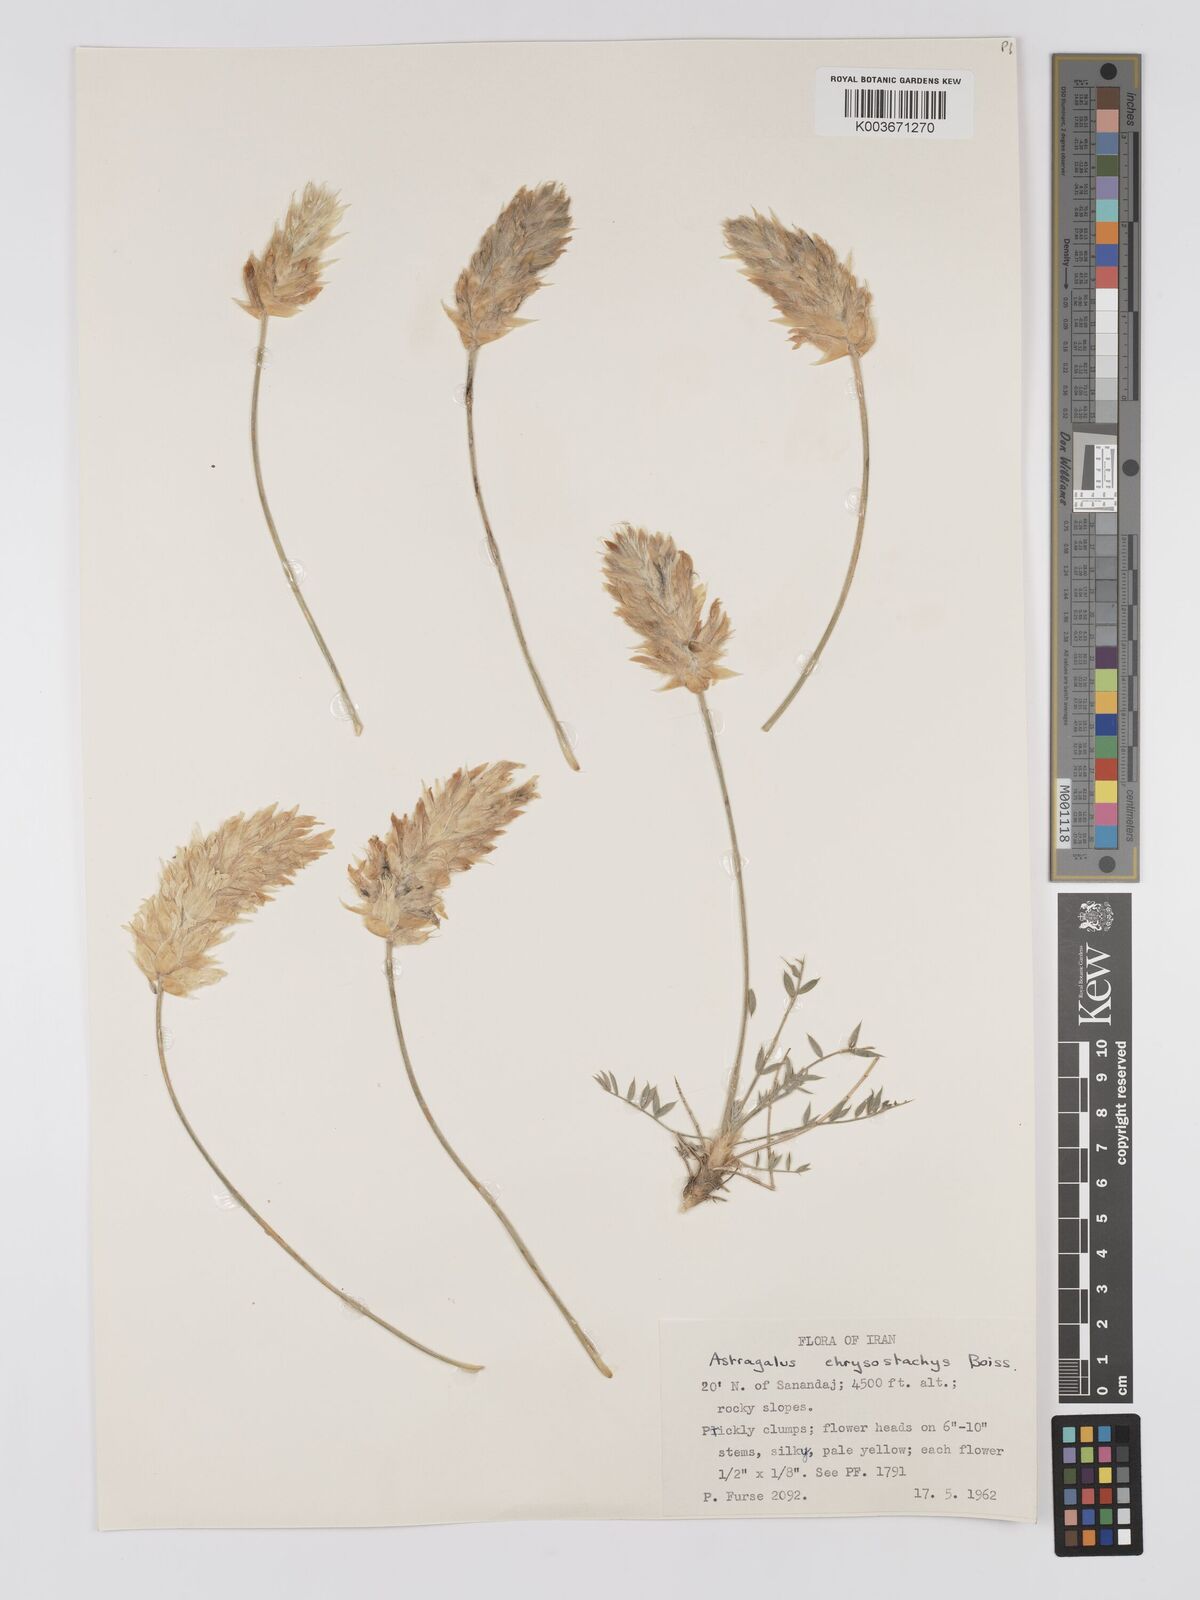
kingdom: Plantae
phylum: Tracheophyta
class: Magnoliopsida
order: Fabales
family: Fabaceae
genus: Astragalus
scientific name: Astragalus chrysostachys
